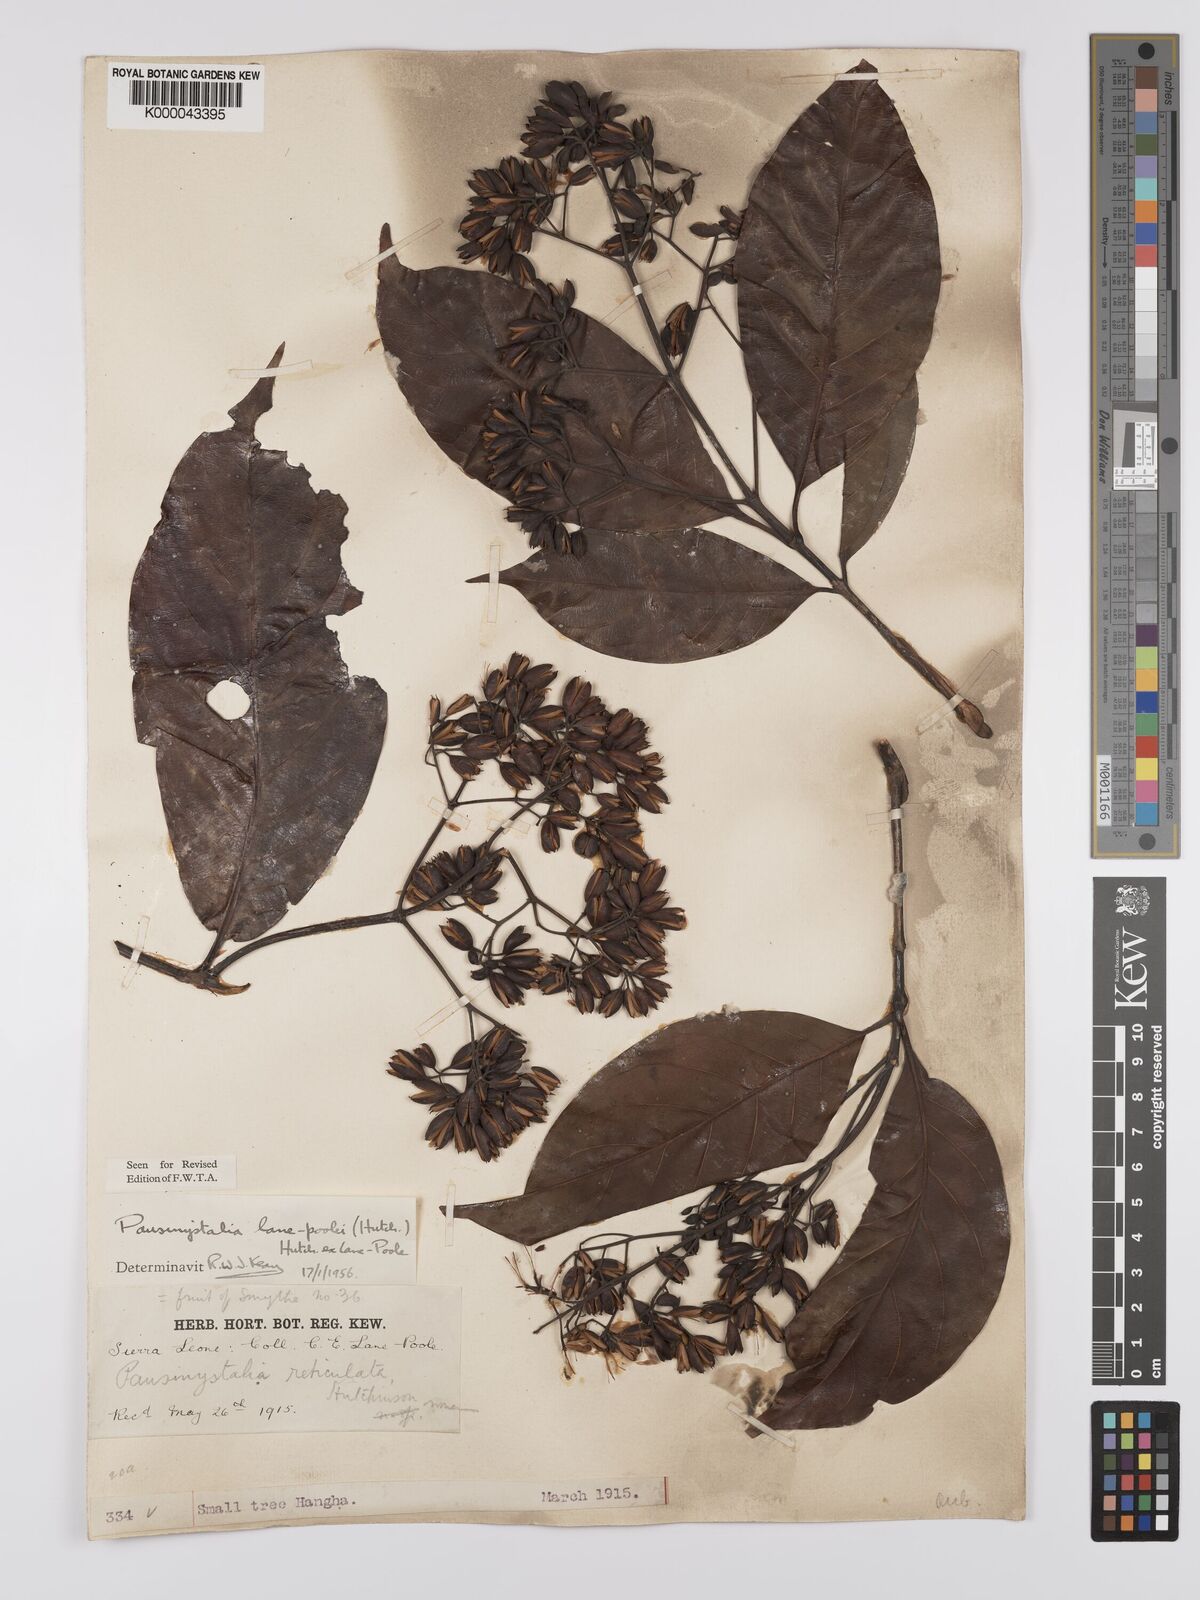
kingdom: Plantae
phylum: Tracheophyta
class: Magnoliopsida
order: Gentianales
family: Rubiaceae
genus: Corynanthe
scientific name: Corynanthe lane-poolei
